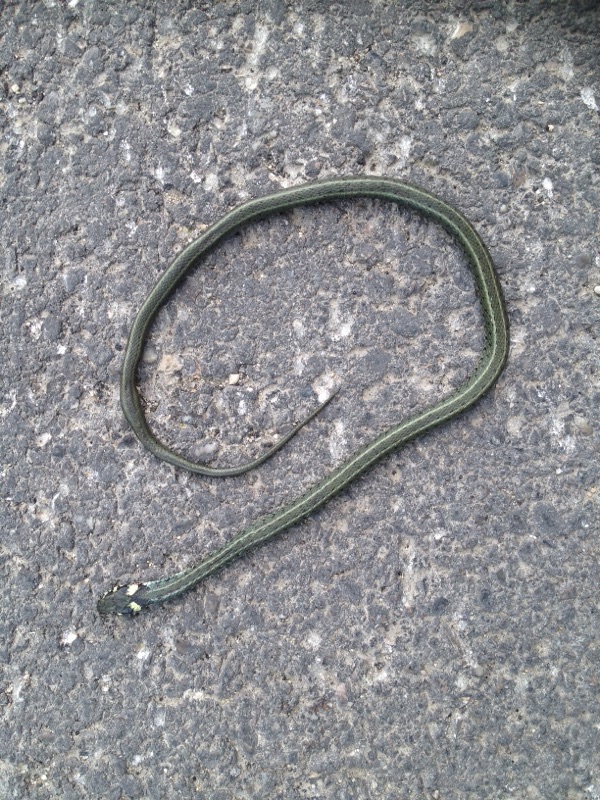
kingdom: Animalia
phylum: Chordata
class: Squamata
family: Colubridae
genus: Natrix
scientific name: Natrix natrix
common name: Grass snake
